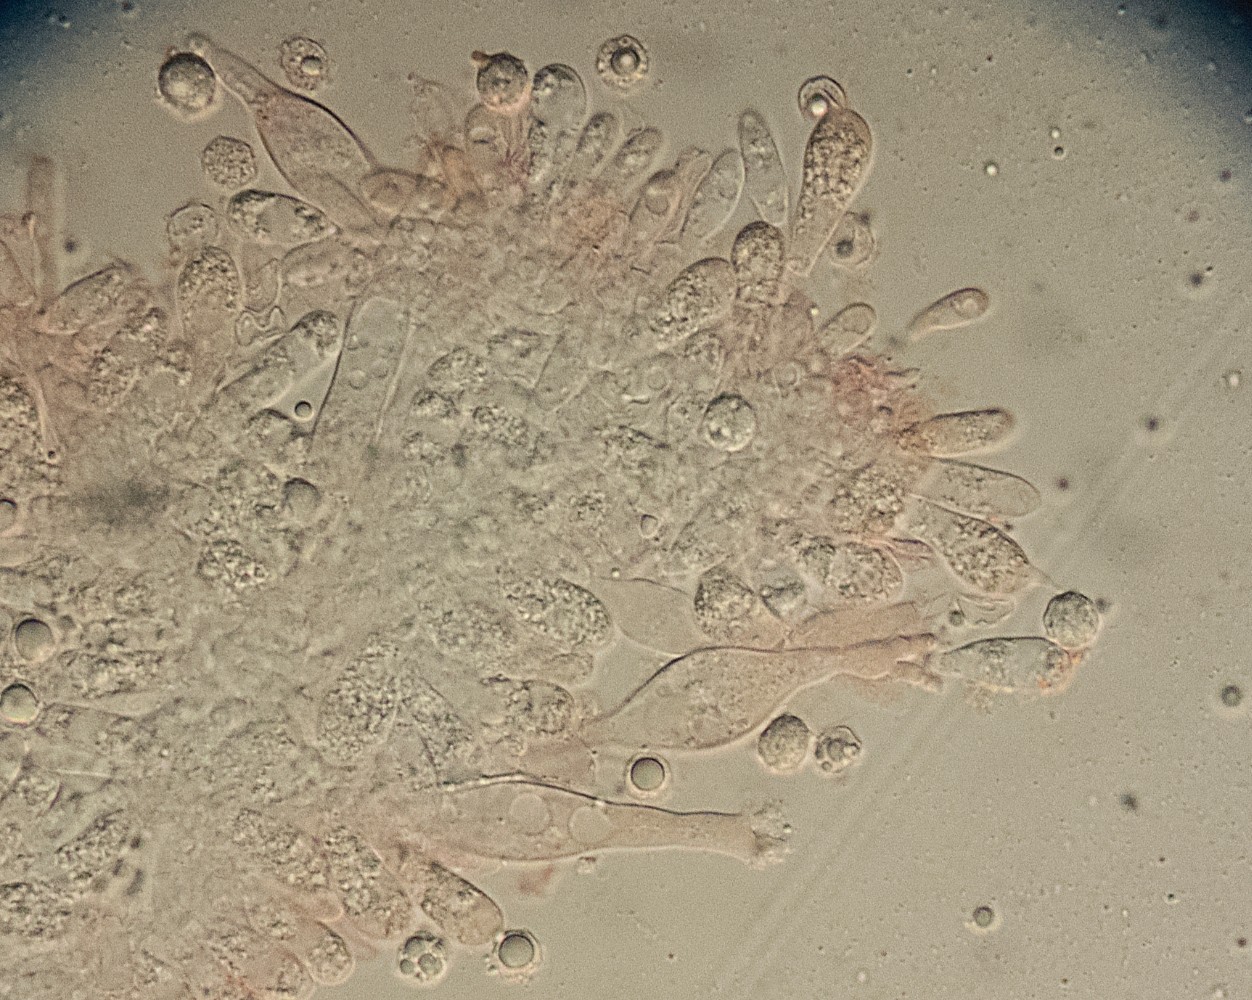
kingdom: Fungi
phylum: Basidiomycota
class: Agaricomycetes
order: Agaricales
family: Tricholomataceae
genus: Mycenella
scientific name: Mycenella lasiosperma
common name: stjernesporet dughat
